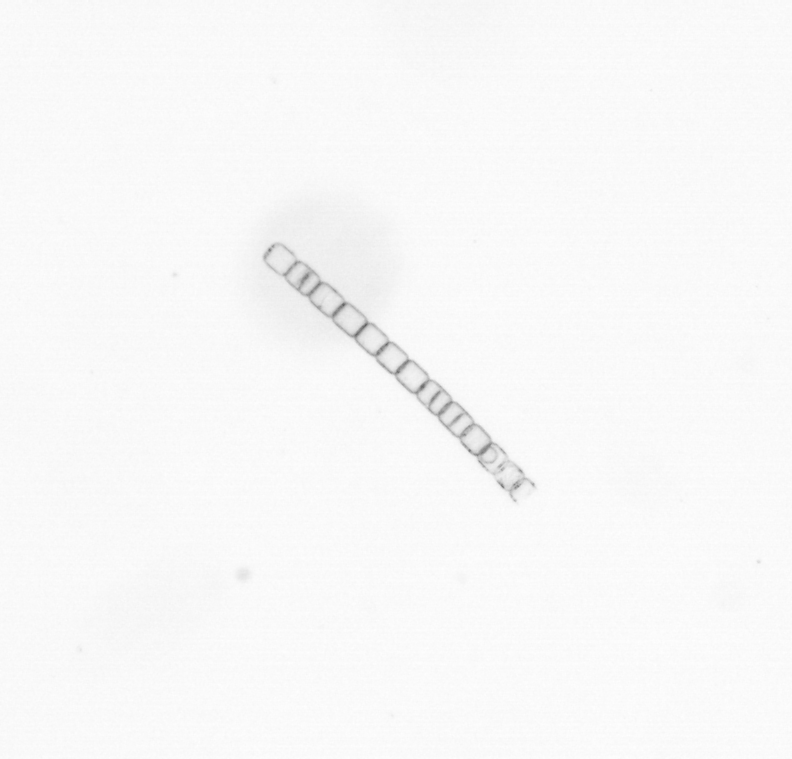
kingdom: Chromista
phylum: Ochrophyta
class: Bacillariophyceae
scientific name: Bacillariophyceae
